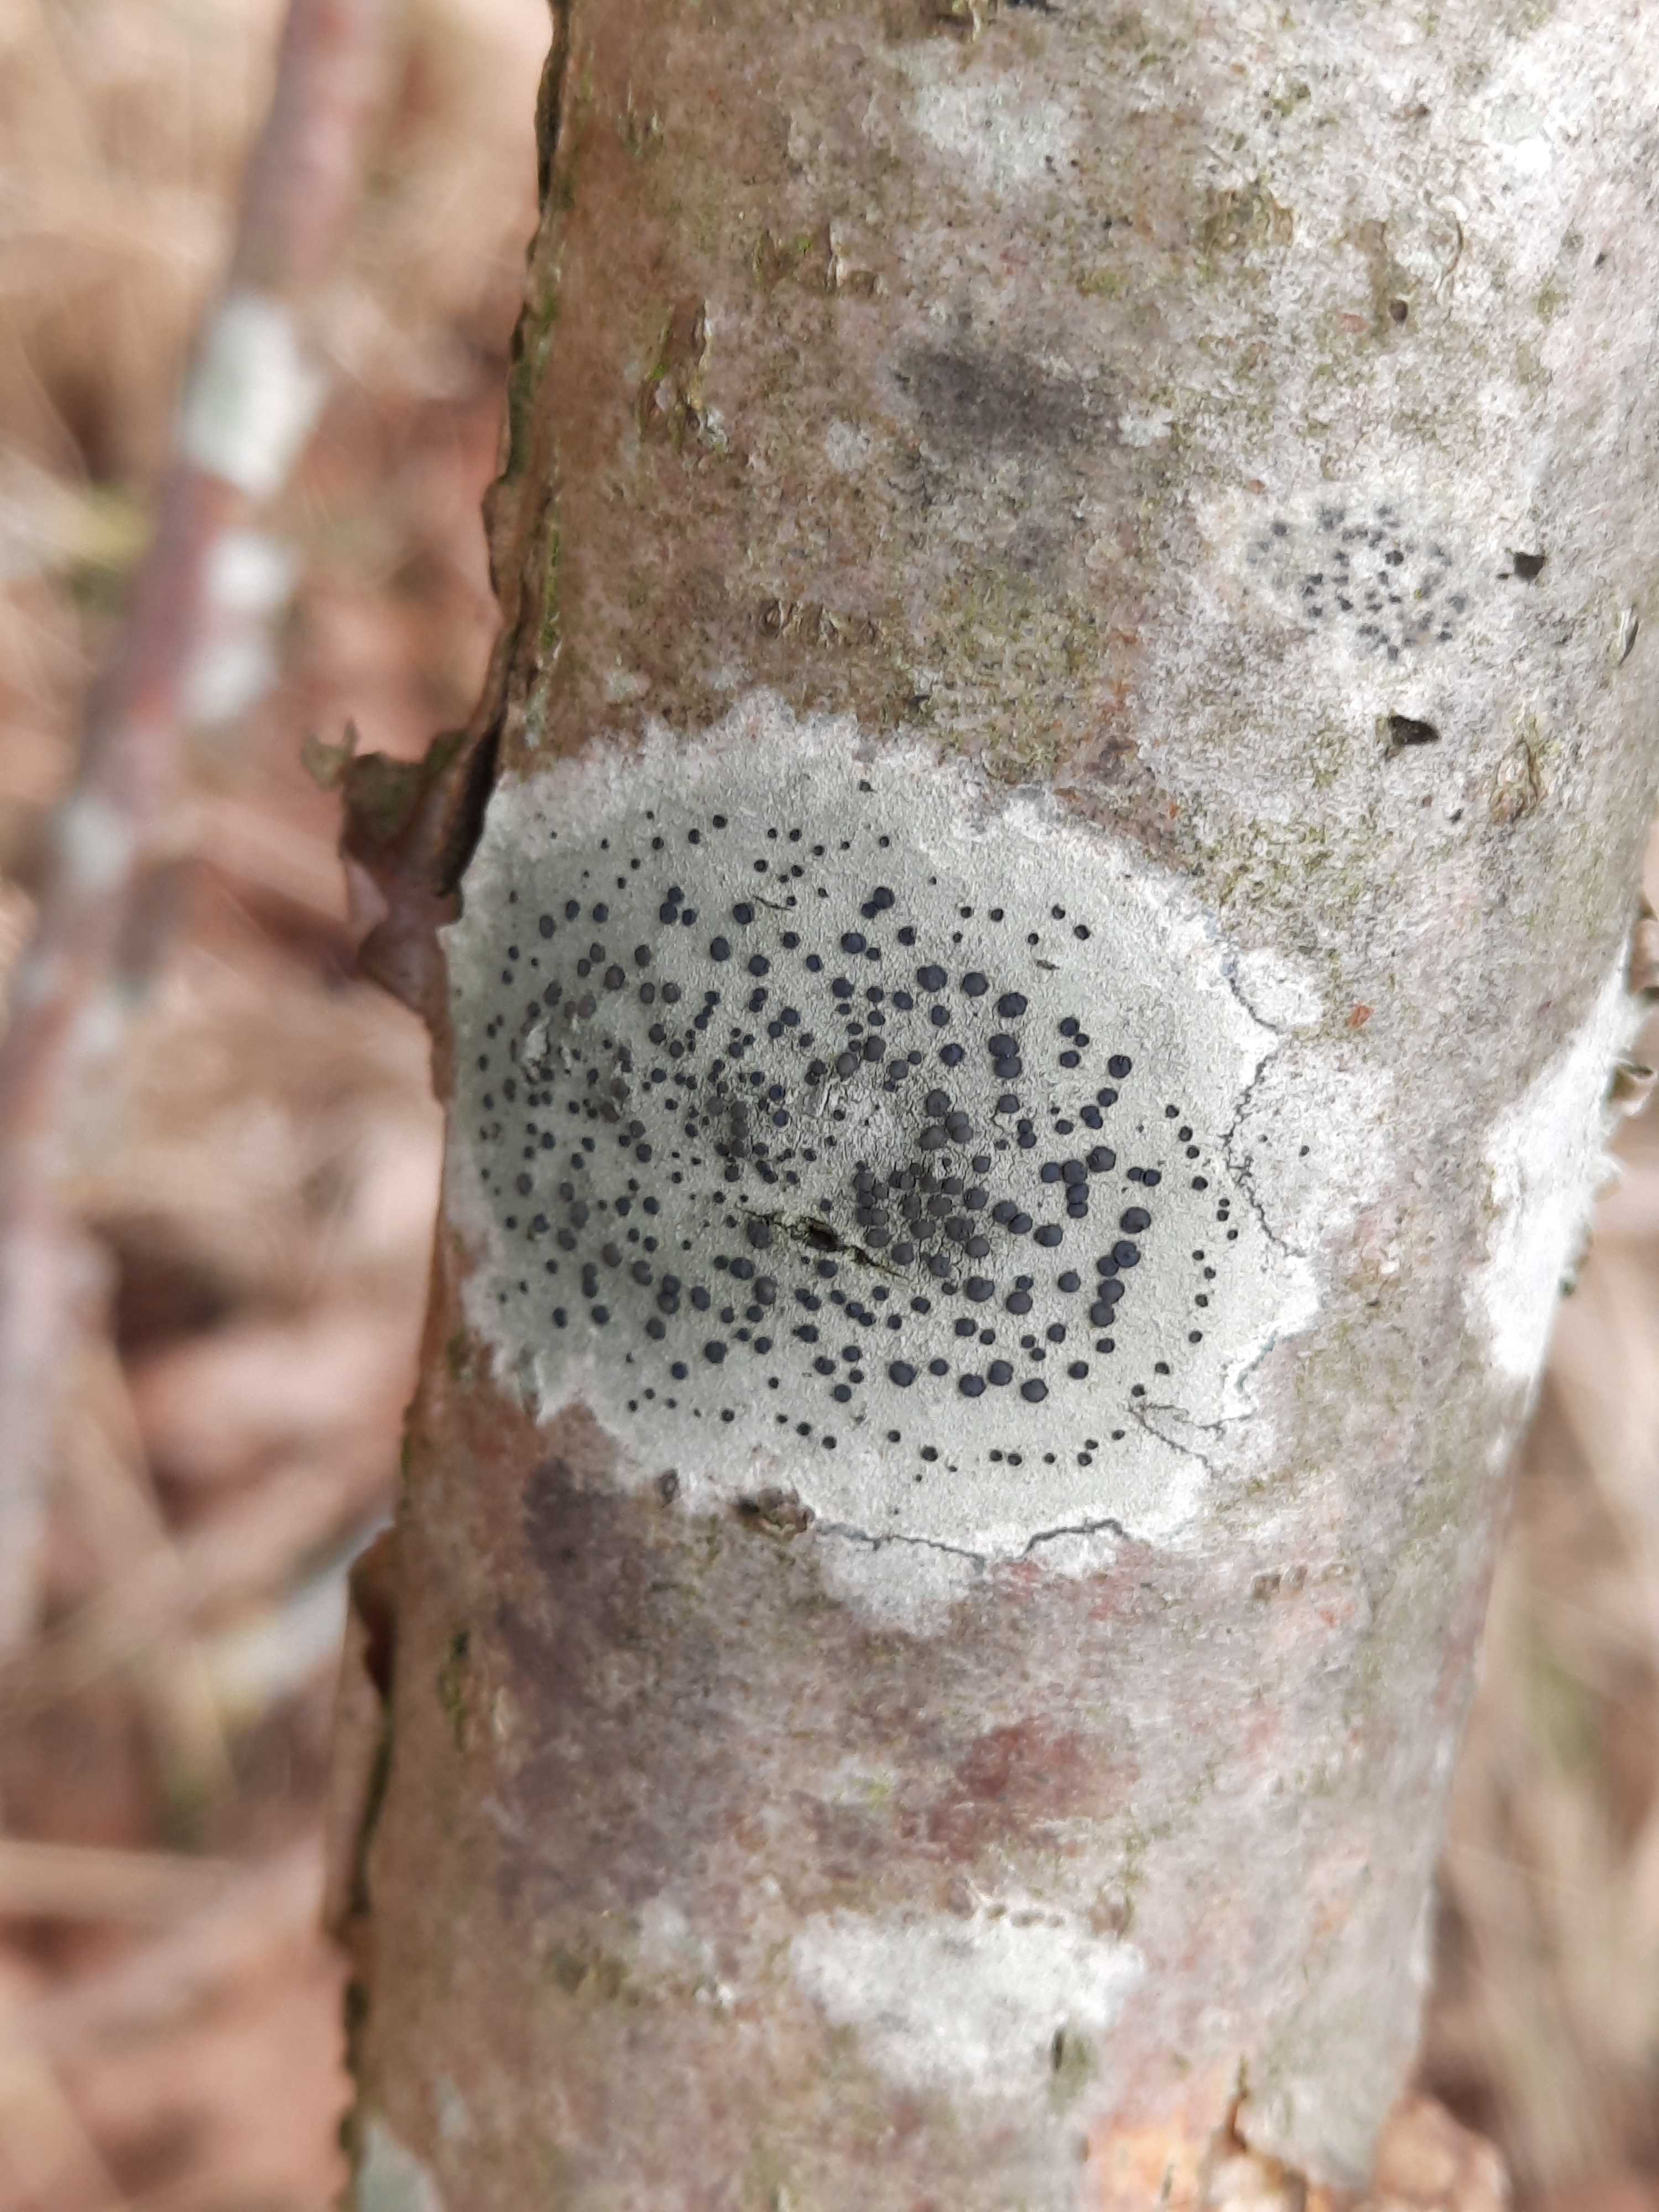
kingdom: Fungi
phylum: Ascomycota
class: Lecanoromycetes
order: Lecanorales
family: Lecanoraceae
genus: Lecidella
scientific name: Lecidella elaeochroma
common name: grågrøn skivelav
